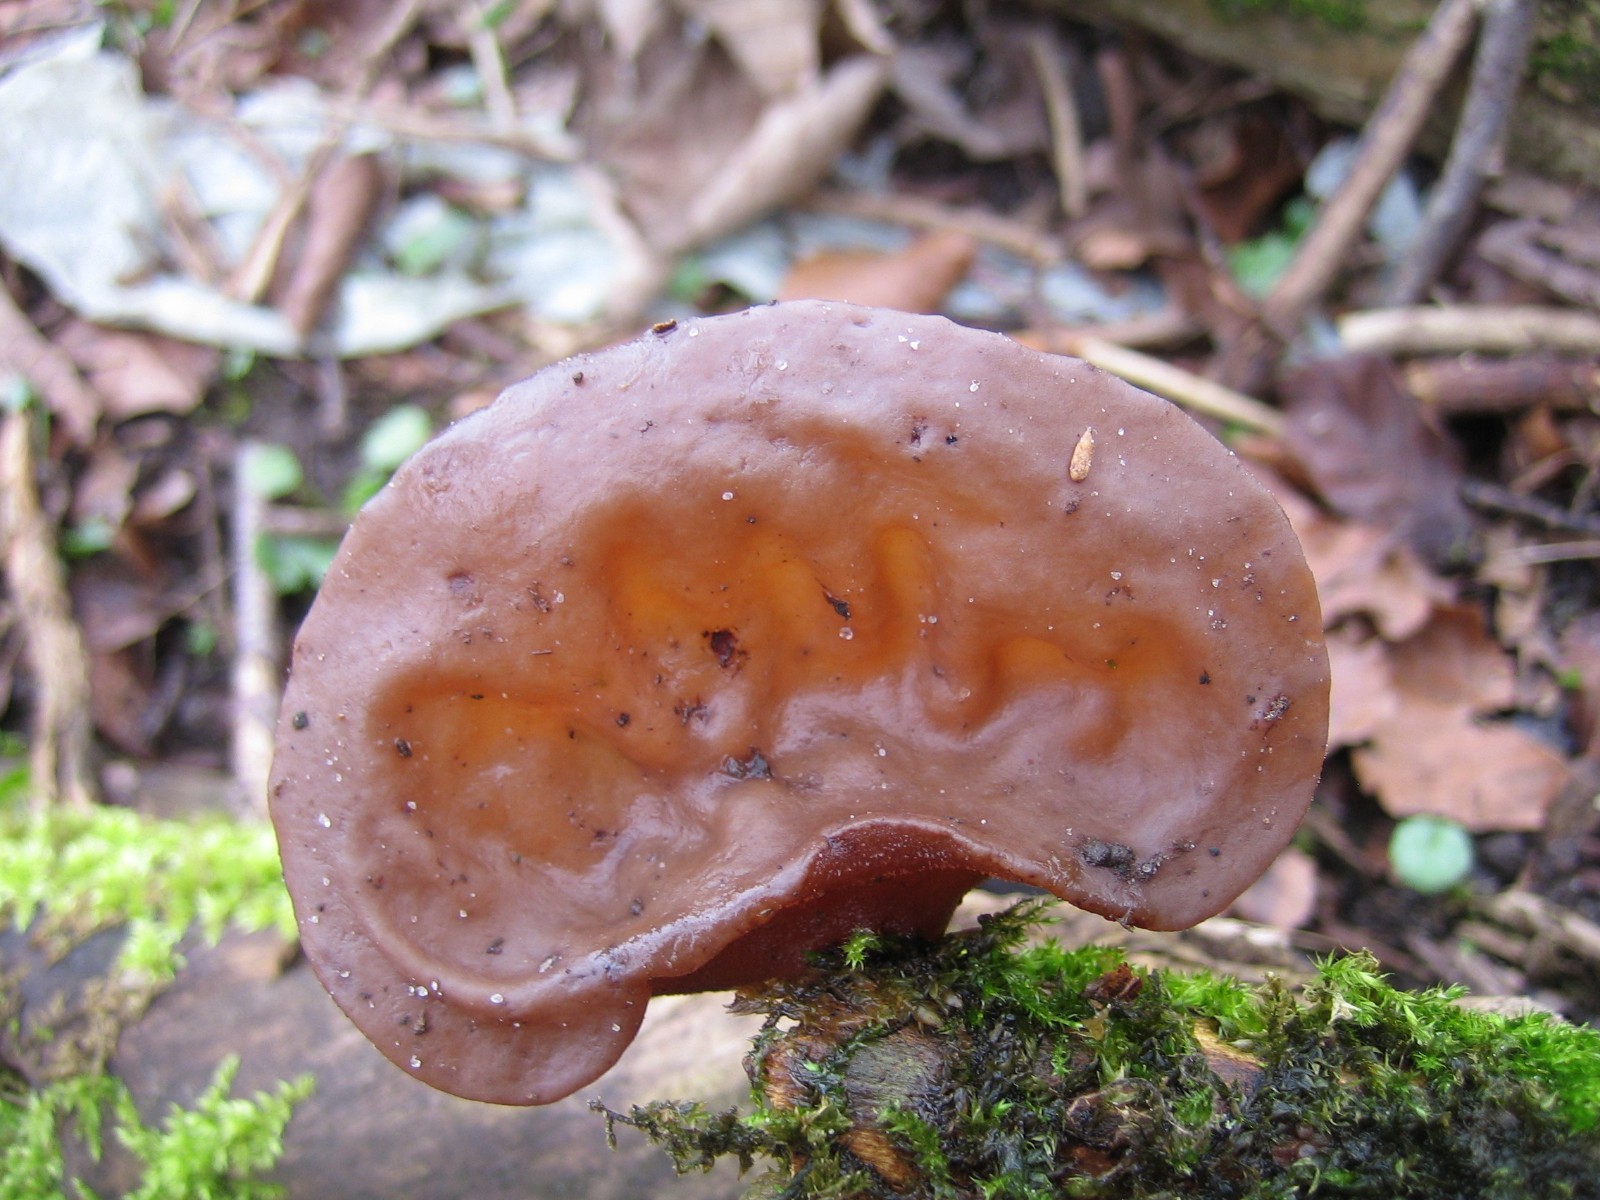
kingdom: Fungi
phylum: Basidiomycota
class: Agaricomycetes
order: Auriculariales
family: Auriculariaceae
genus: Auricularia
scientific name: Auricularia auricula-judae
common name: almindelig judasøre
